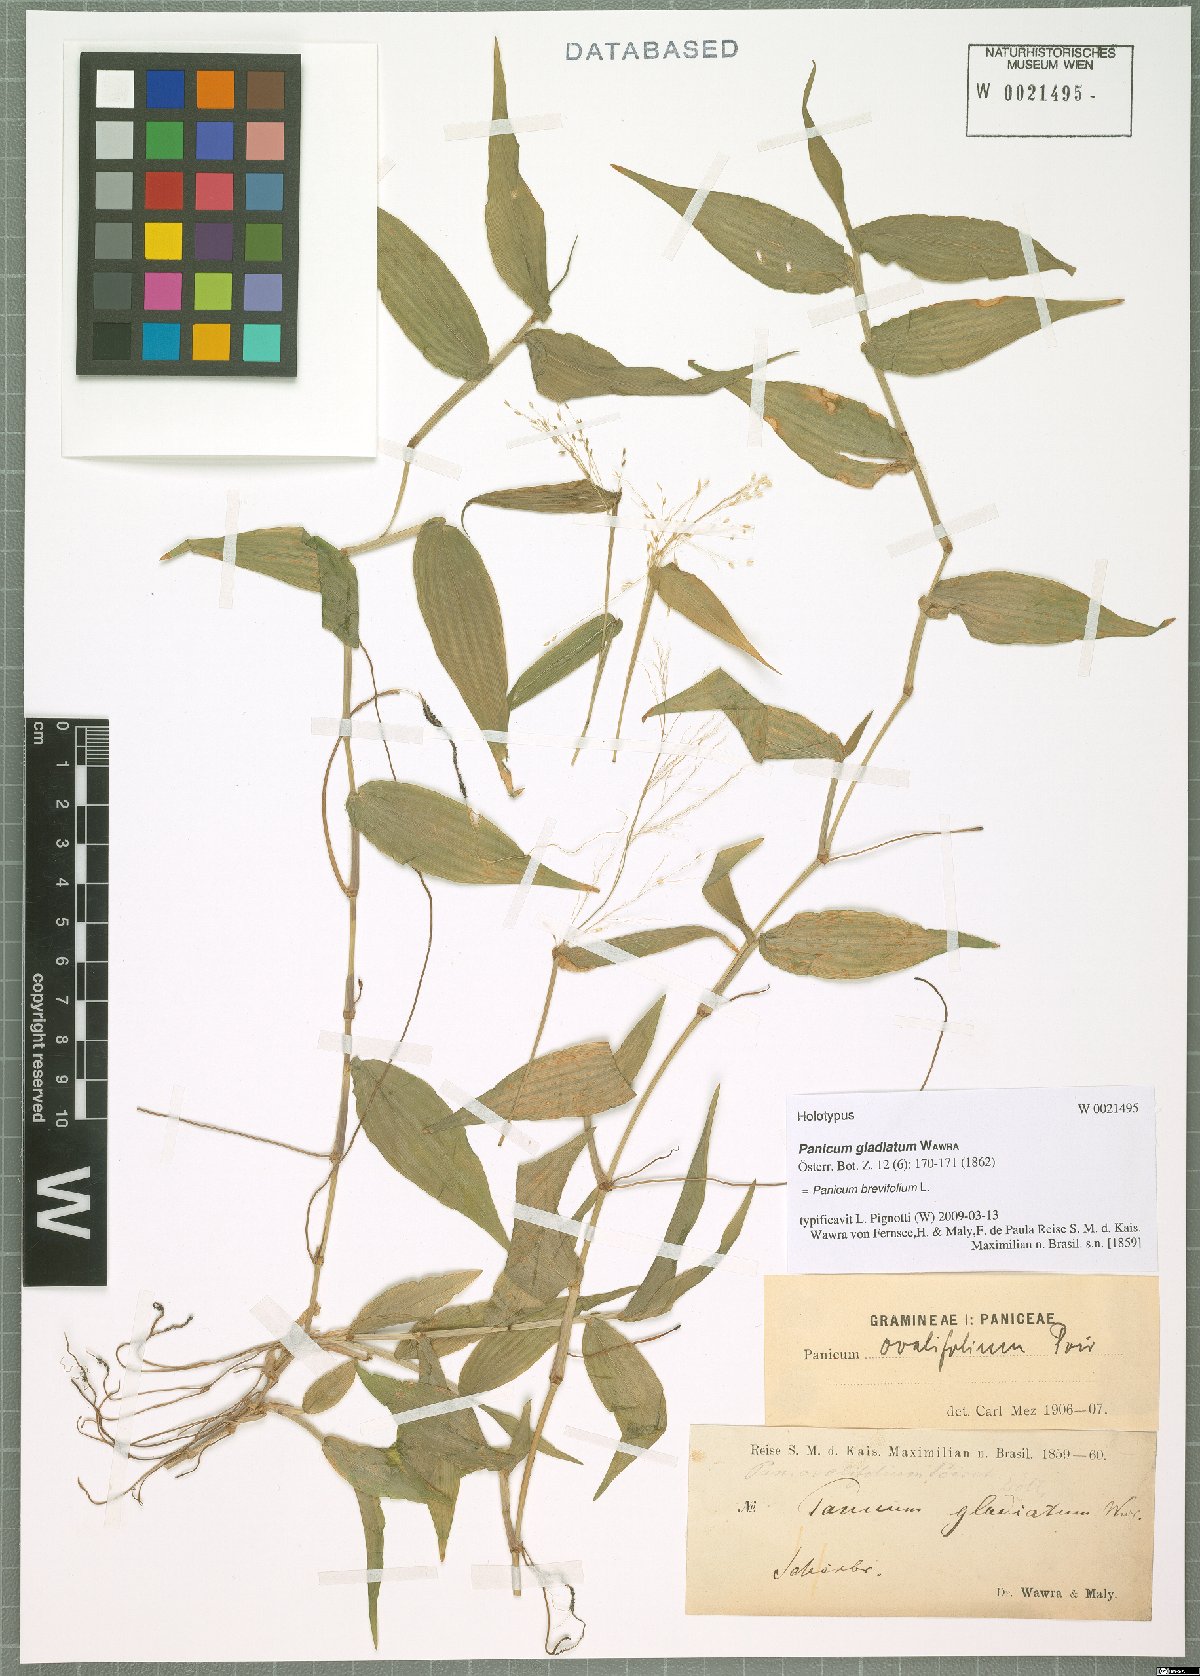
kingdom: Plantae
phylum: Tracheophyta
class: Liliopsida
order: Poales
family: Poaceae
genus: Panicum
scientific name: Panicum brevifolium
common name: Shortleaf panic grass
